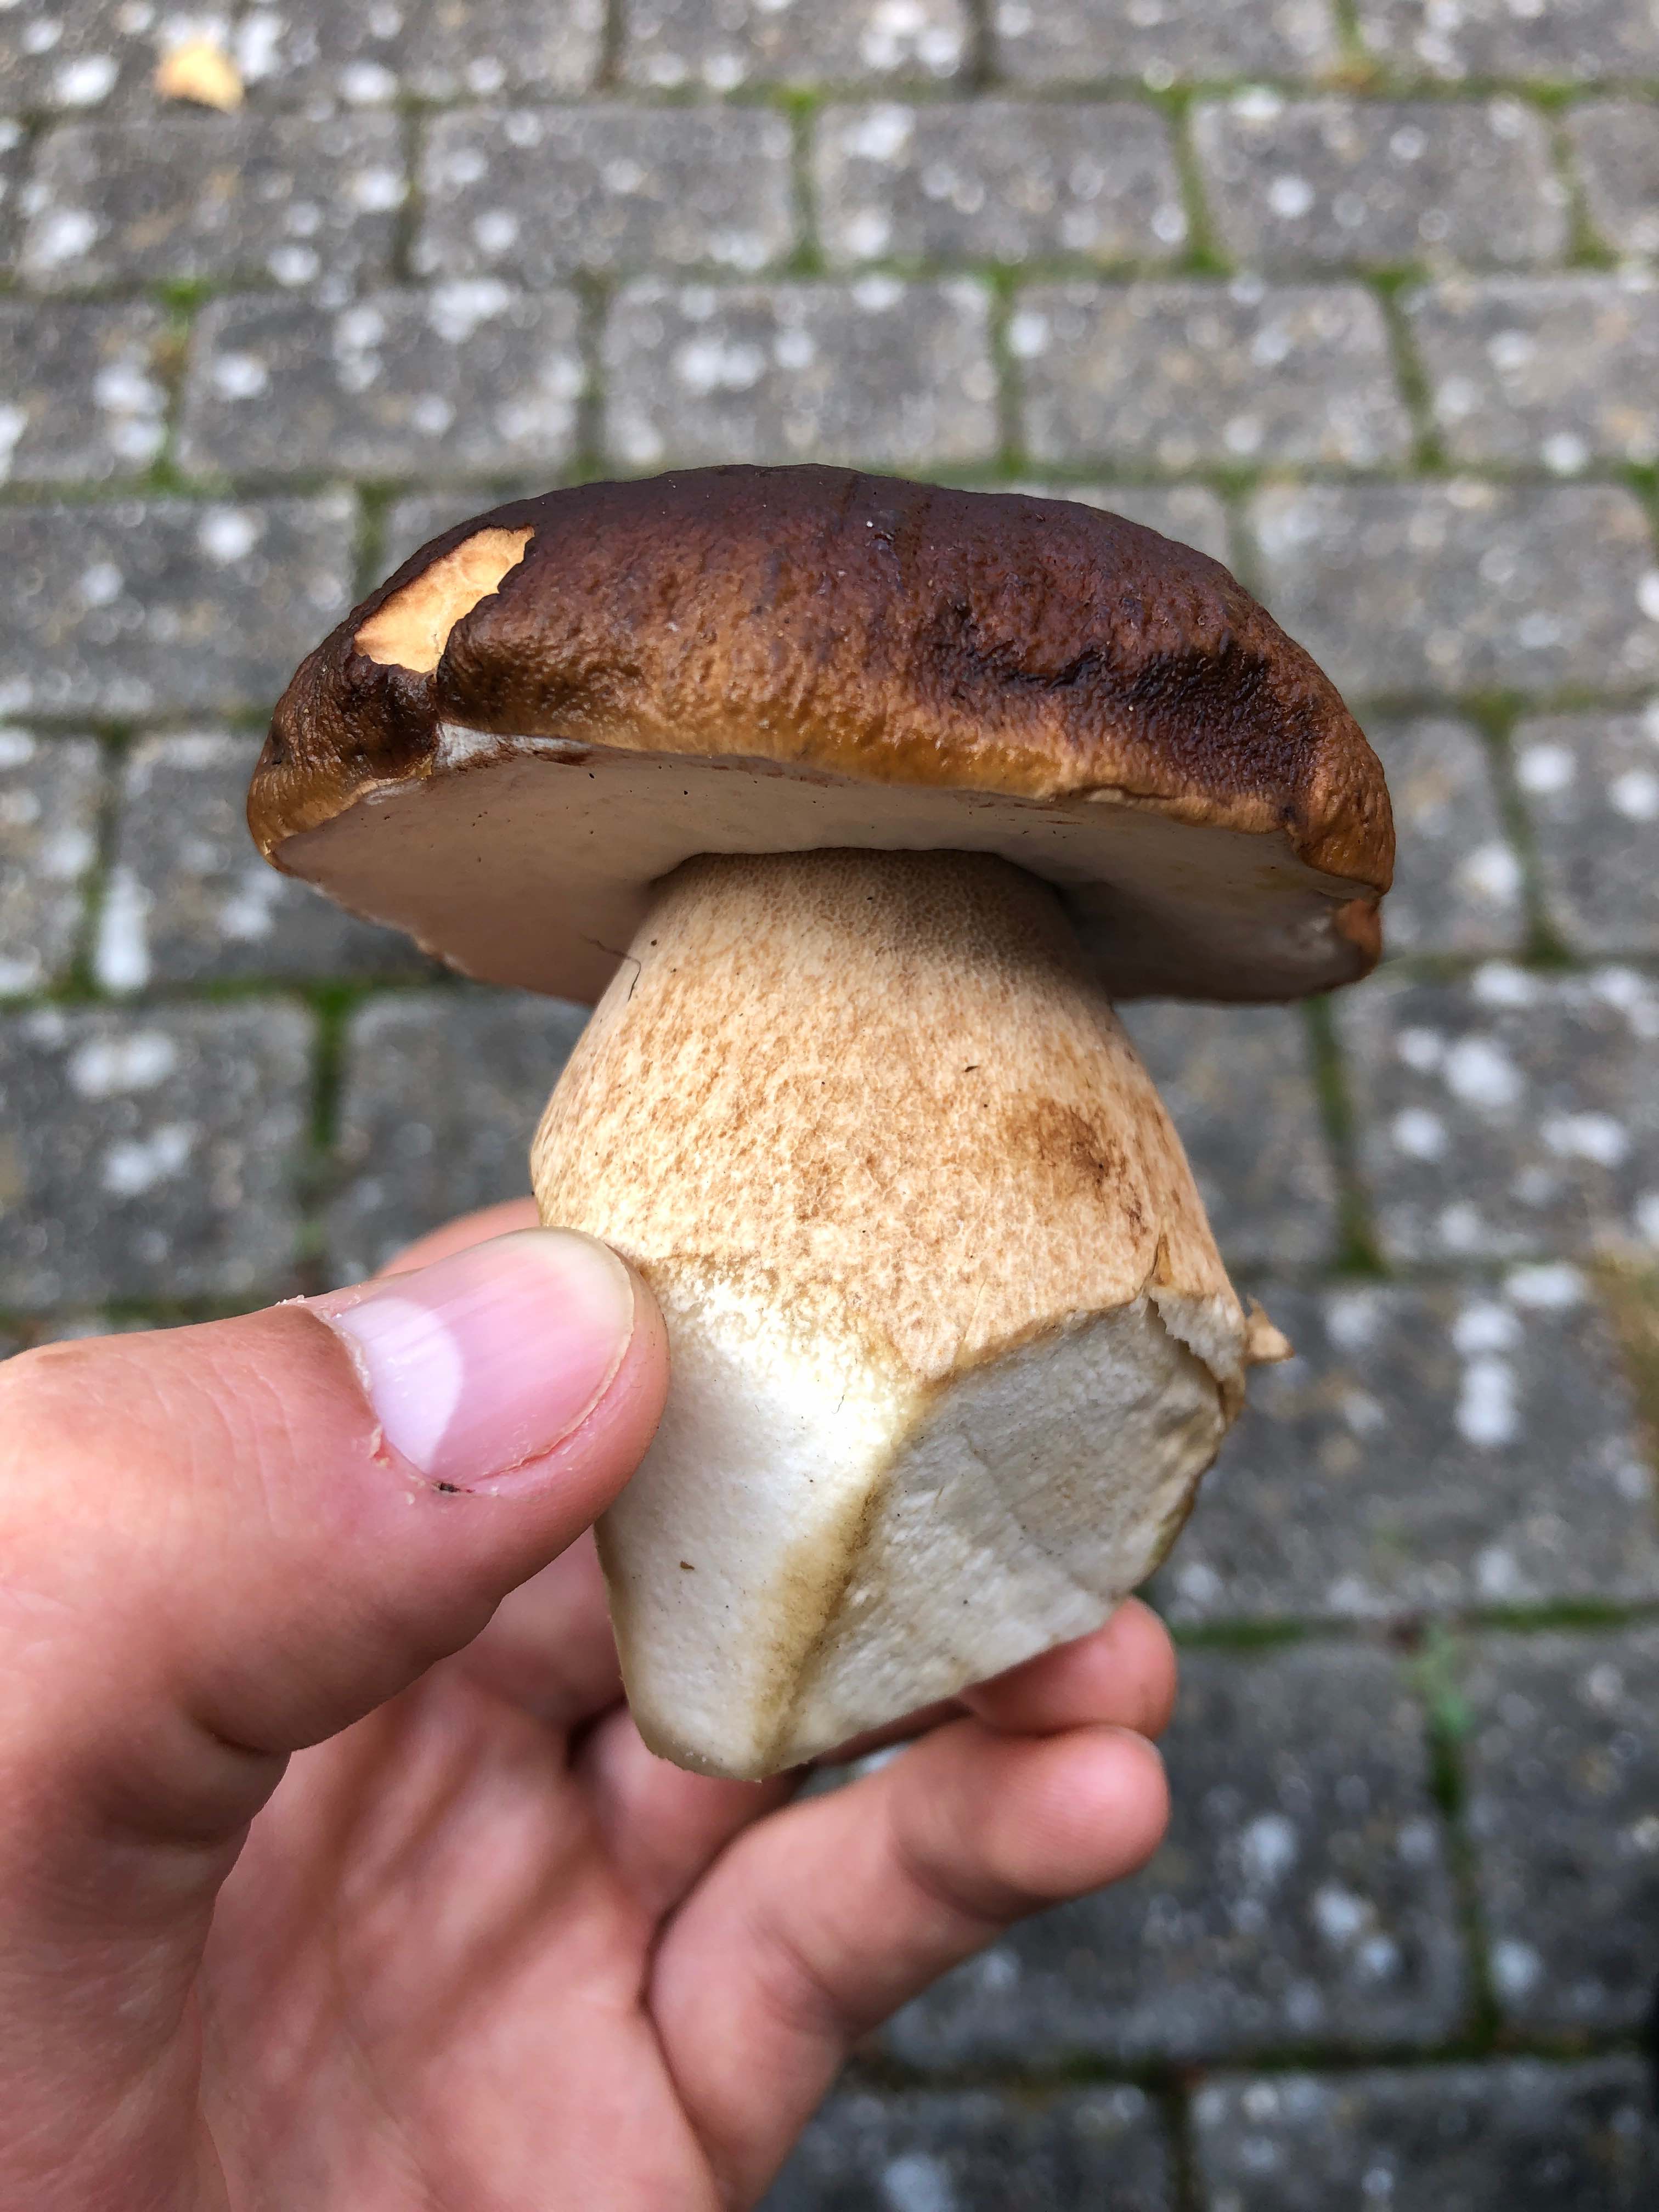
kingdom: Fungi
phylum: Basidiomycota
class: Agaricomycetes
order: Boletales
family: Boletaceae
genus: Boletus
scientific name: Boletus edulis
